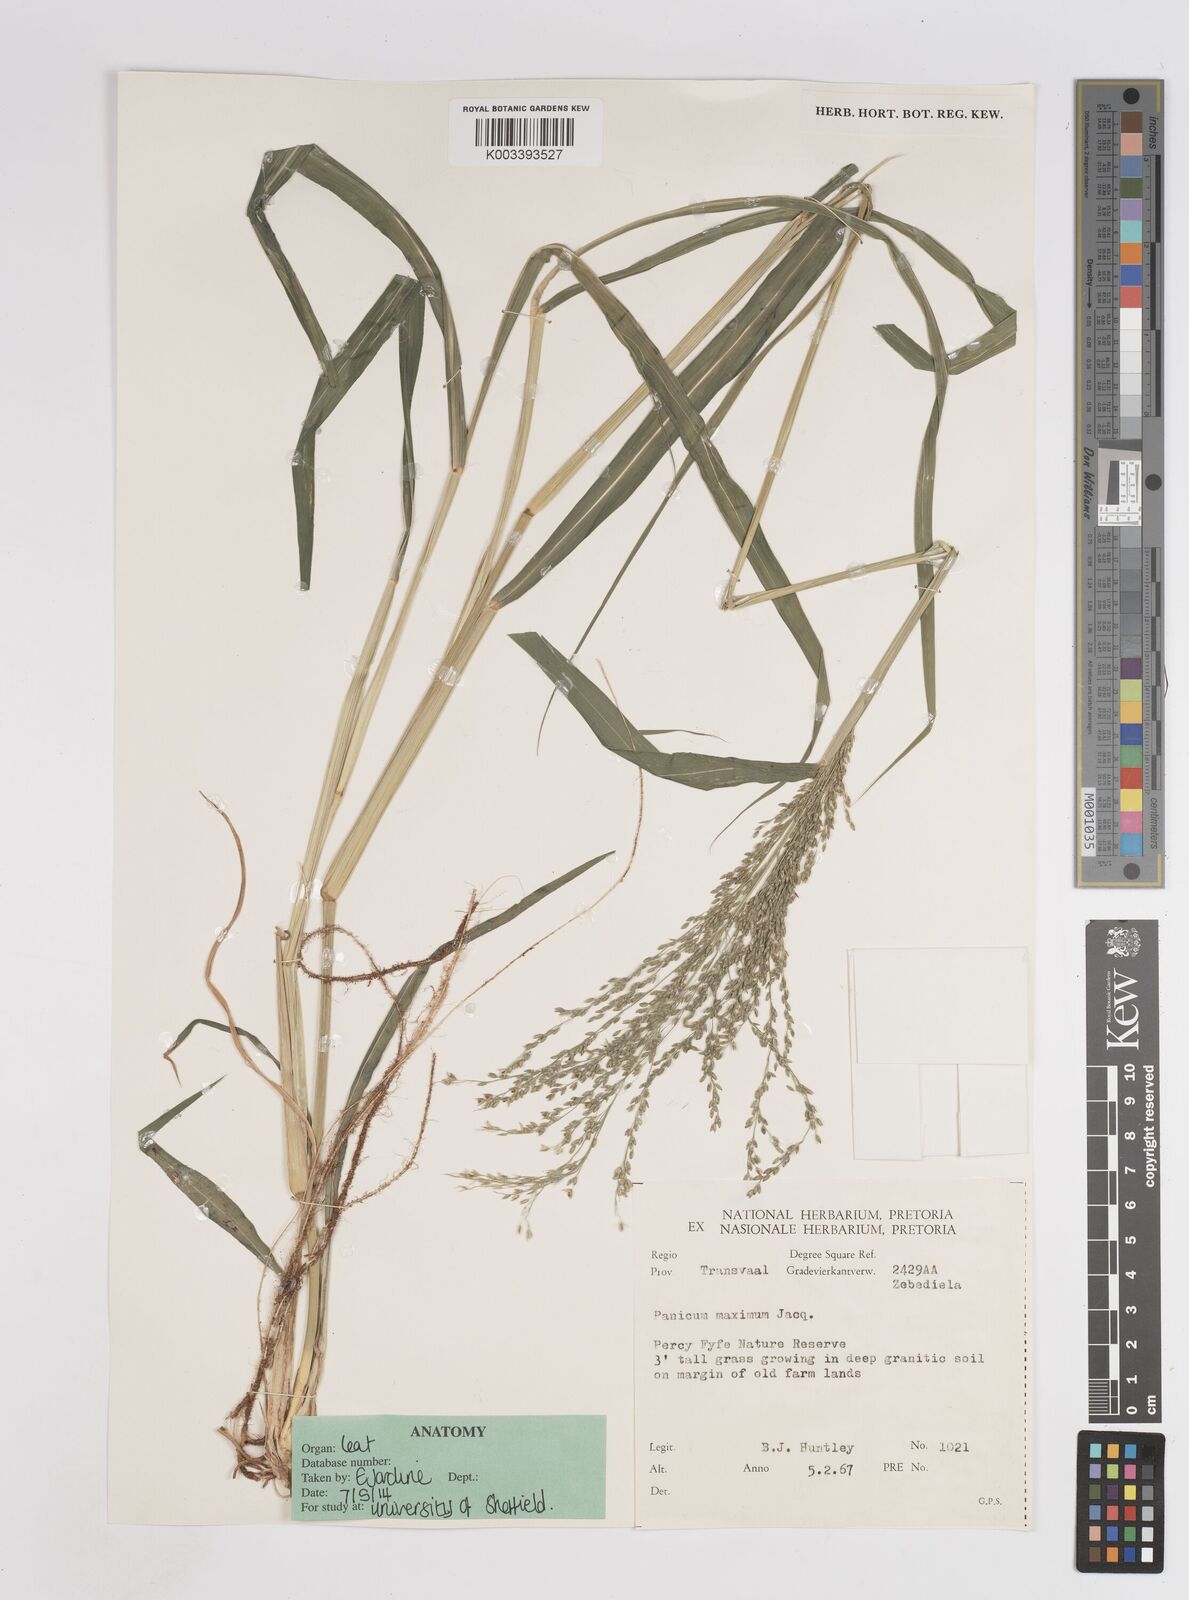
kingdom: Plantae
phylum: Tracheophyta
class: Liliopsida
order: Poales
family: Poaceae
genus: Megathyrsus
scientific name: Megathyrsus maximus
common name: Guineagrass
